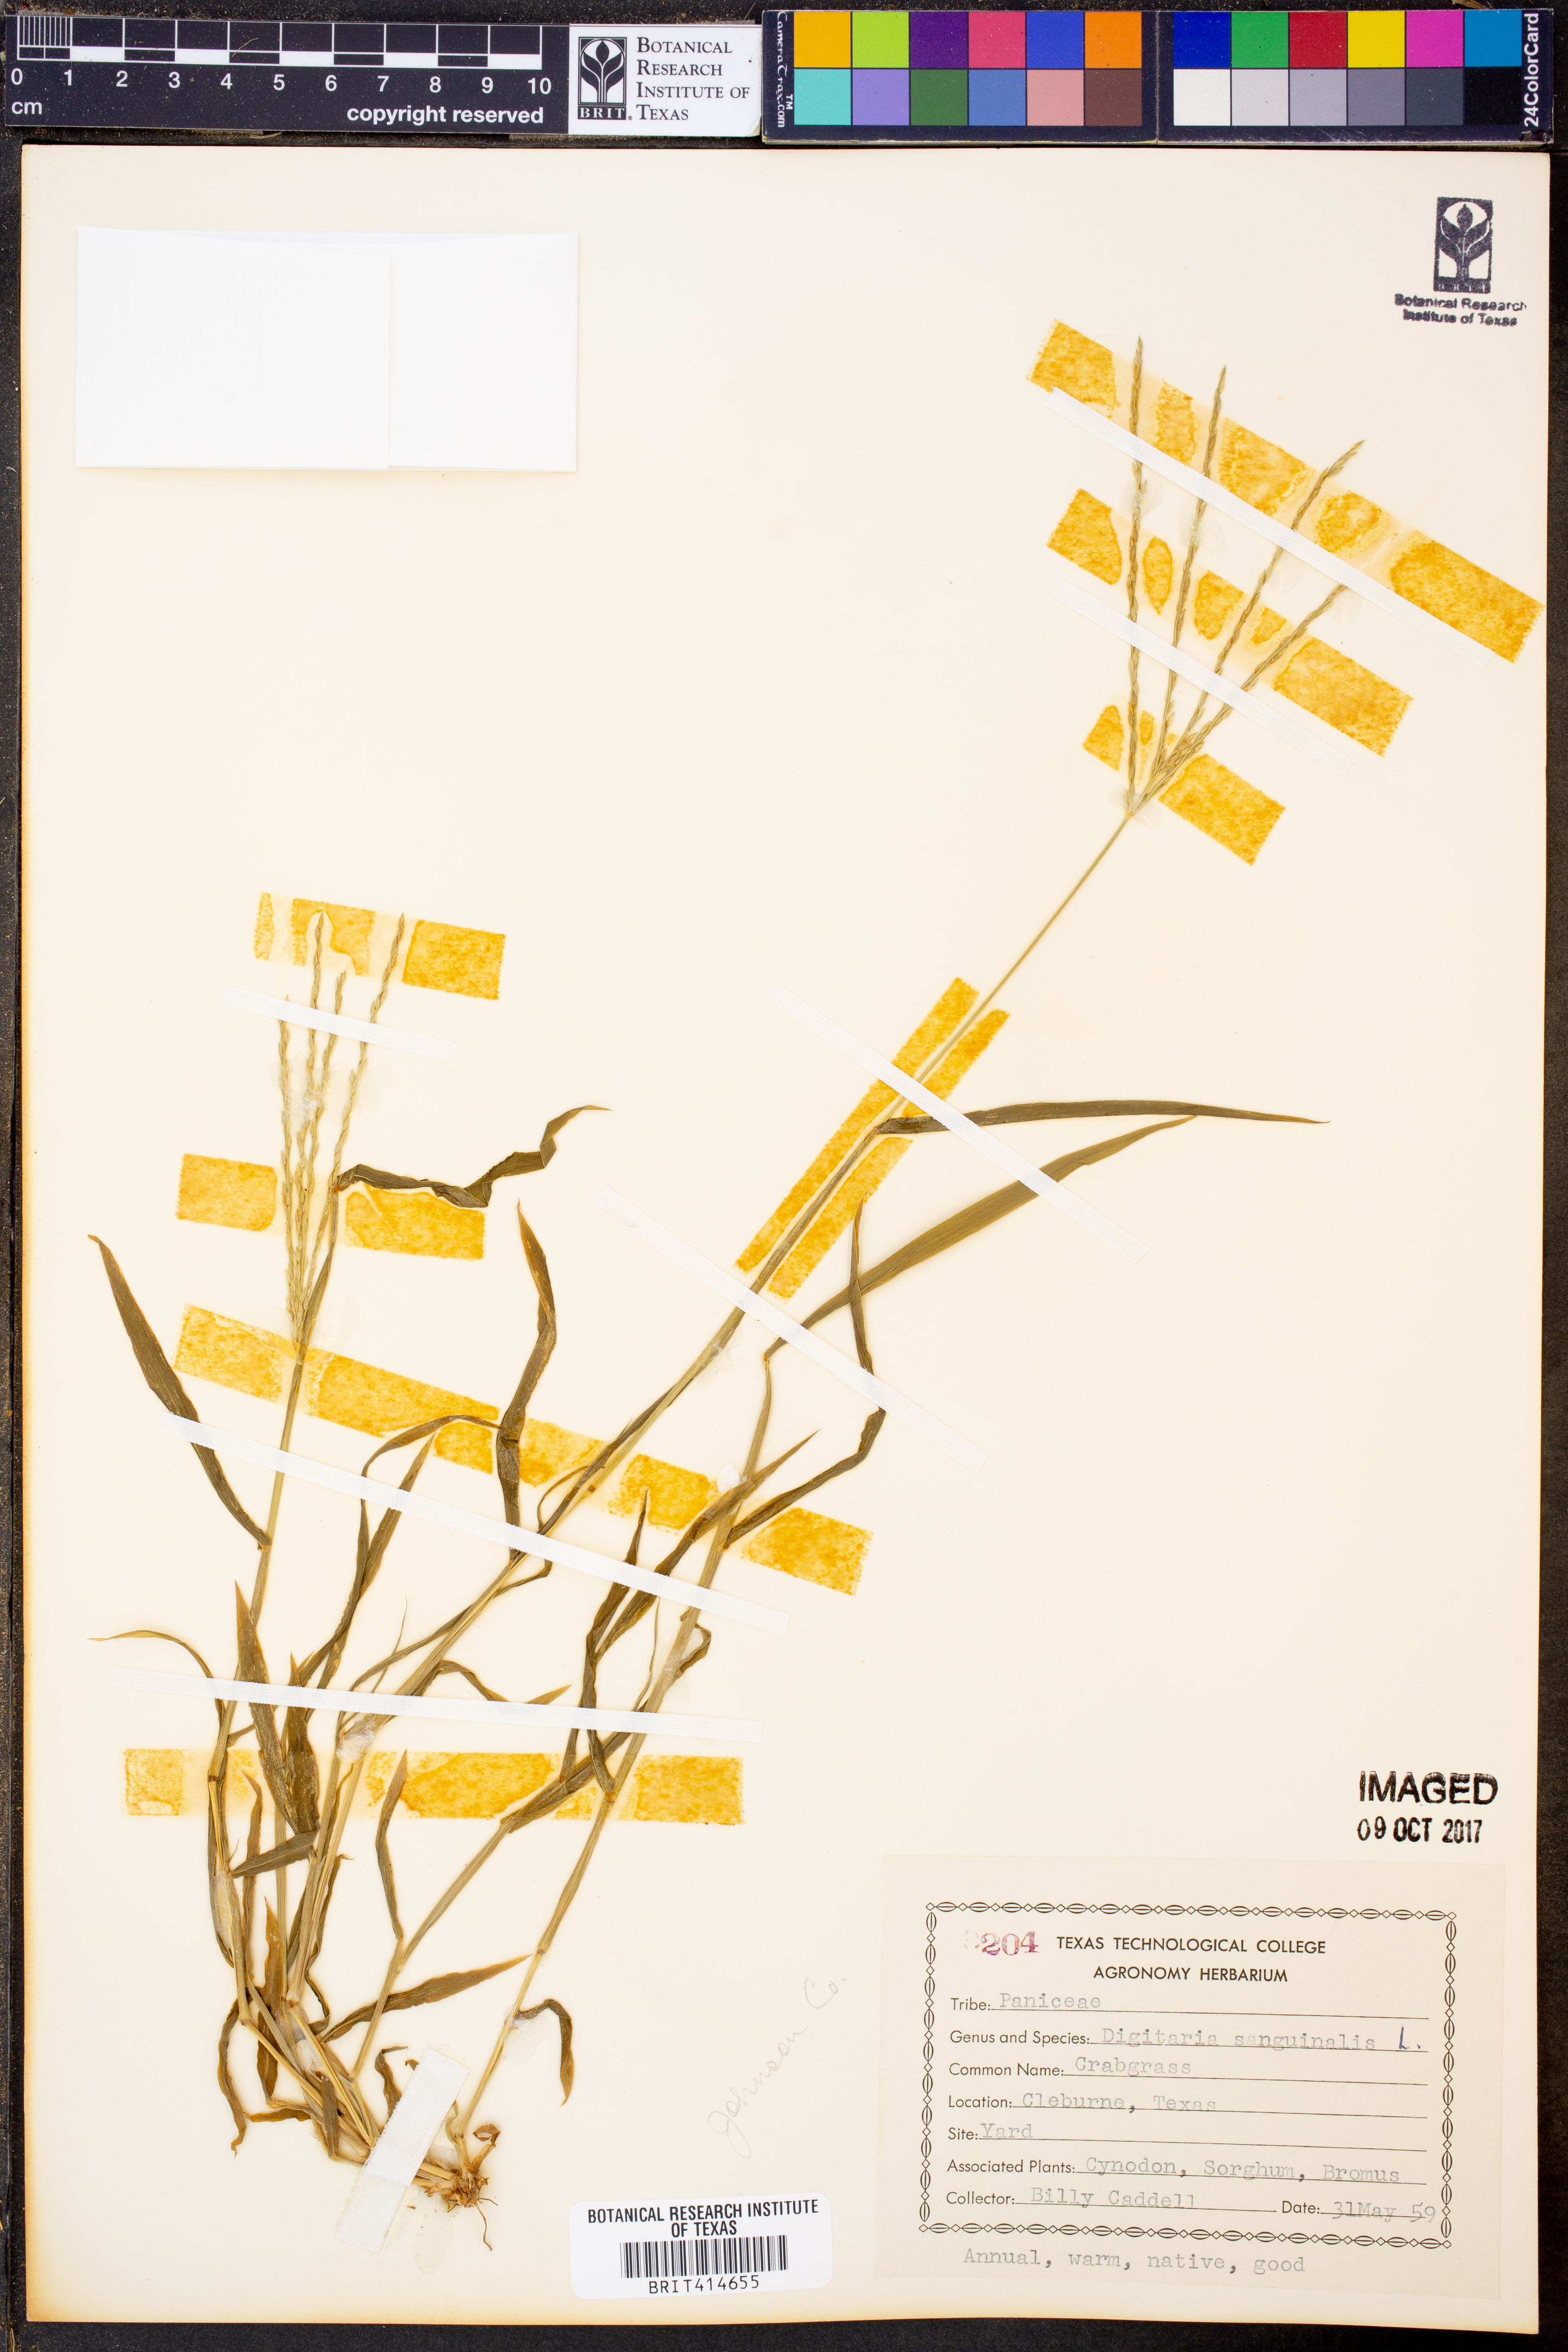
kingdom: Plantae
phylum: Tracheophyta
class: Liliopsida
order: Poales
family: Poaceae
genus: Digitaria
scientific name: Digitaria sanguinalis
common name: Hairy crabgrass
